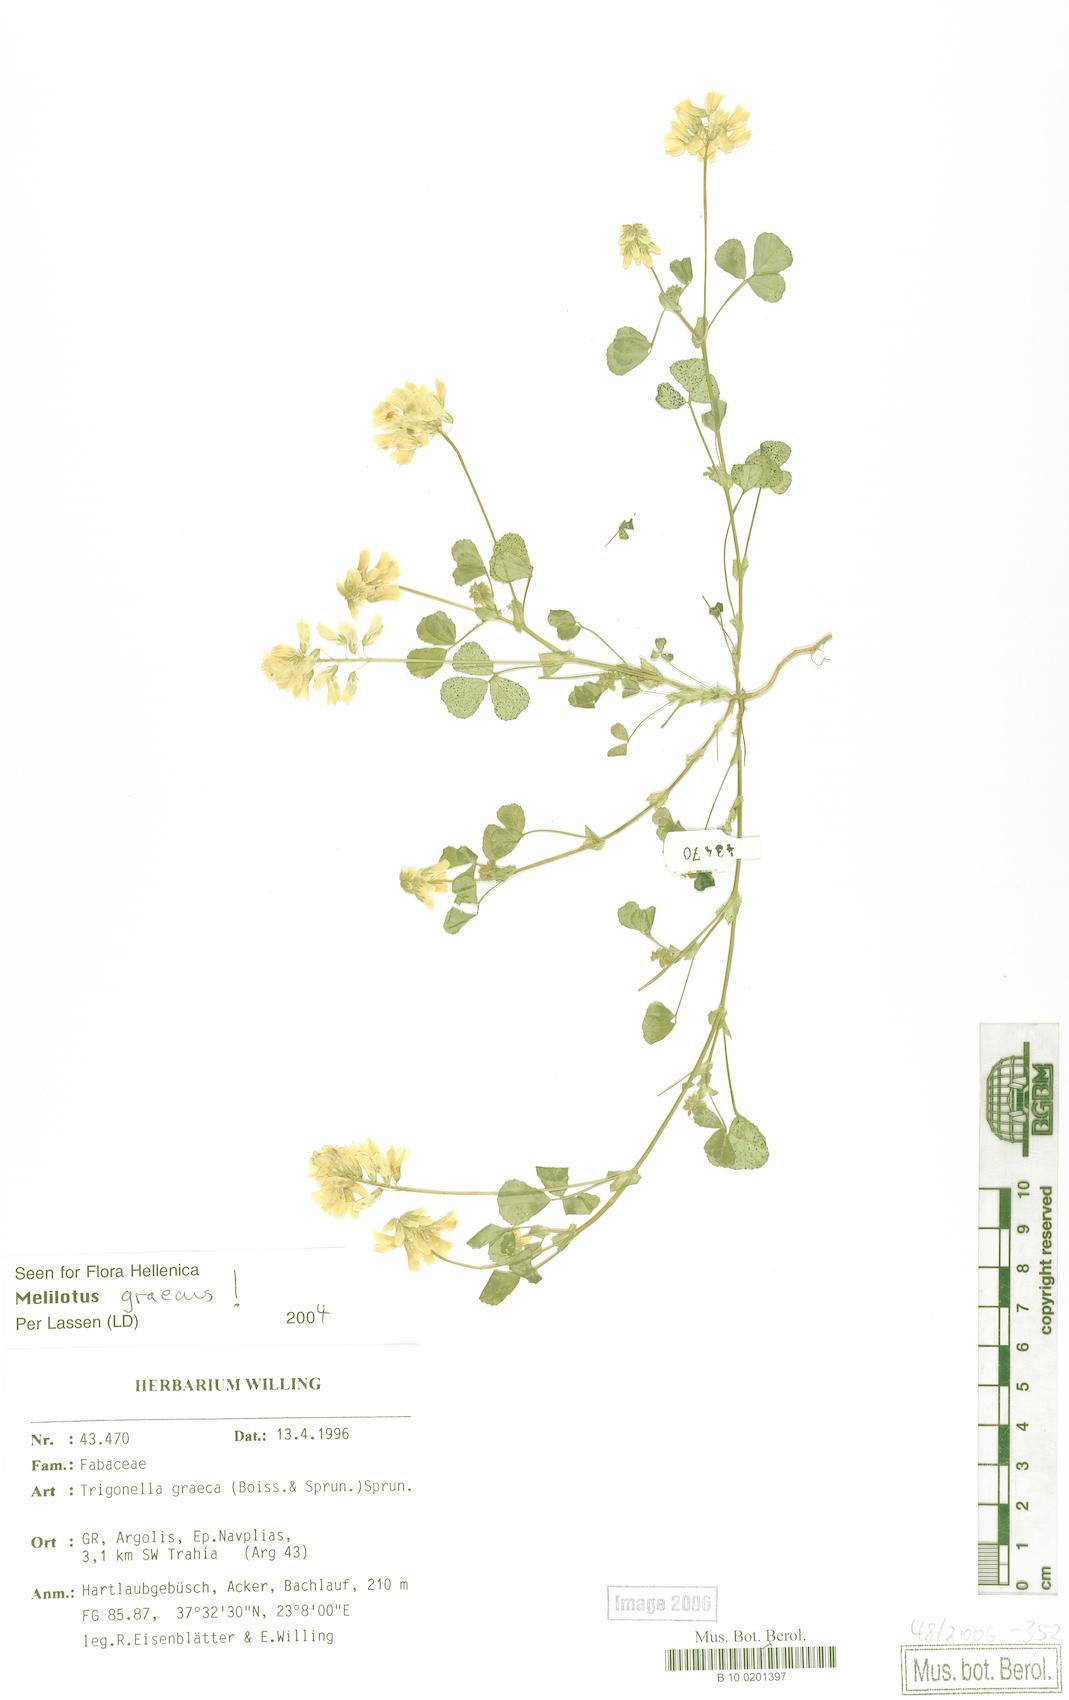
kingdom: Plantae
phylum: Tracheophyta
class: Magnoliopsida
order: Fabales
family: Fabaceae
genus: Trigonella
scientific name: Trigonella graeca
